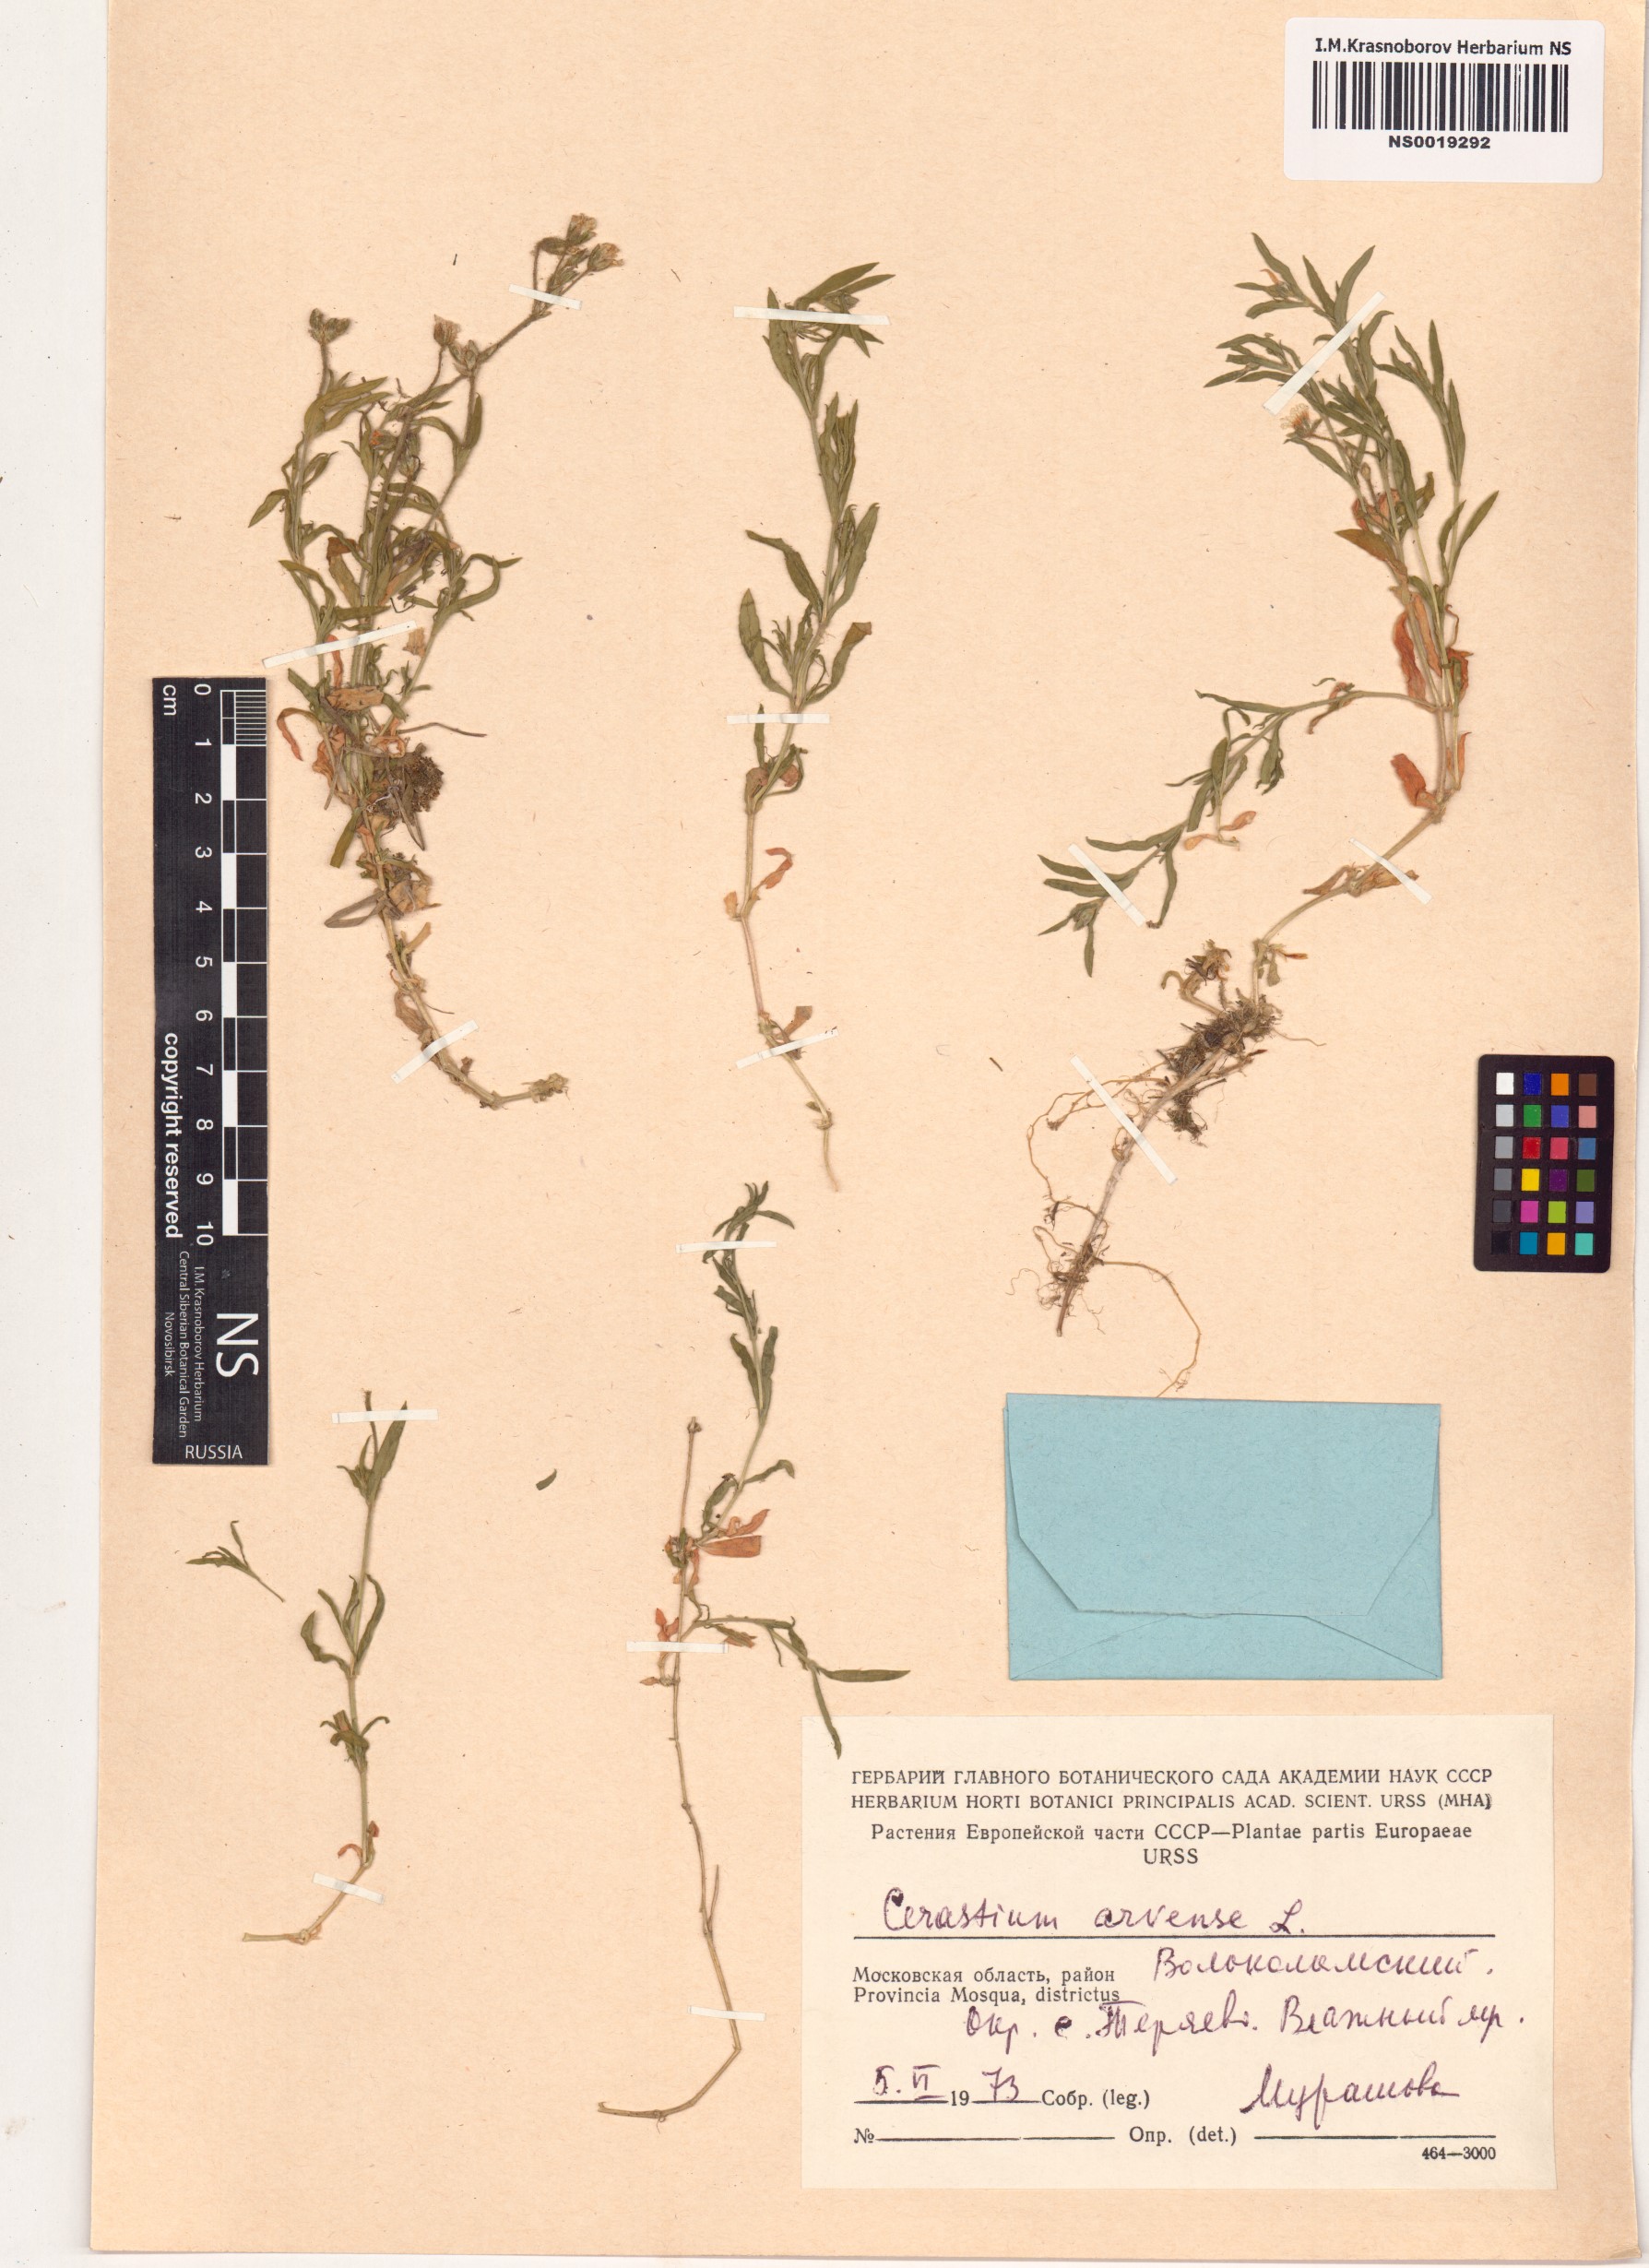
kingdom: Plantae
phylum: Tracheophyta
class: Magnoliopsida
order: Caryophyllales
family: Caryophyllaceae
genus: Cerastium
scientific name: Cerastium arvense
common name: Field mouse-ear
